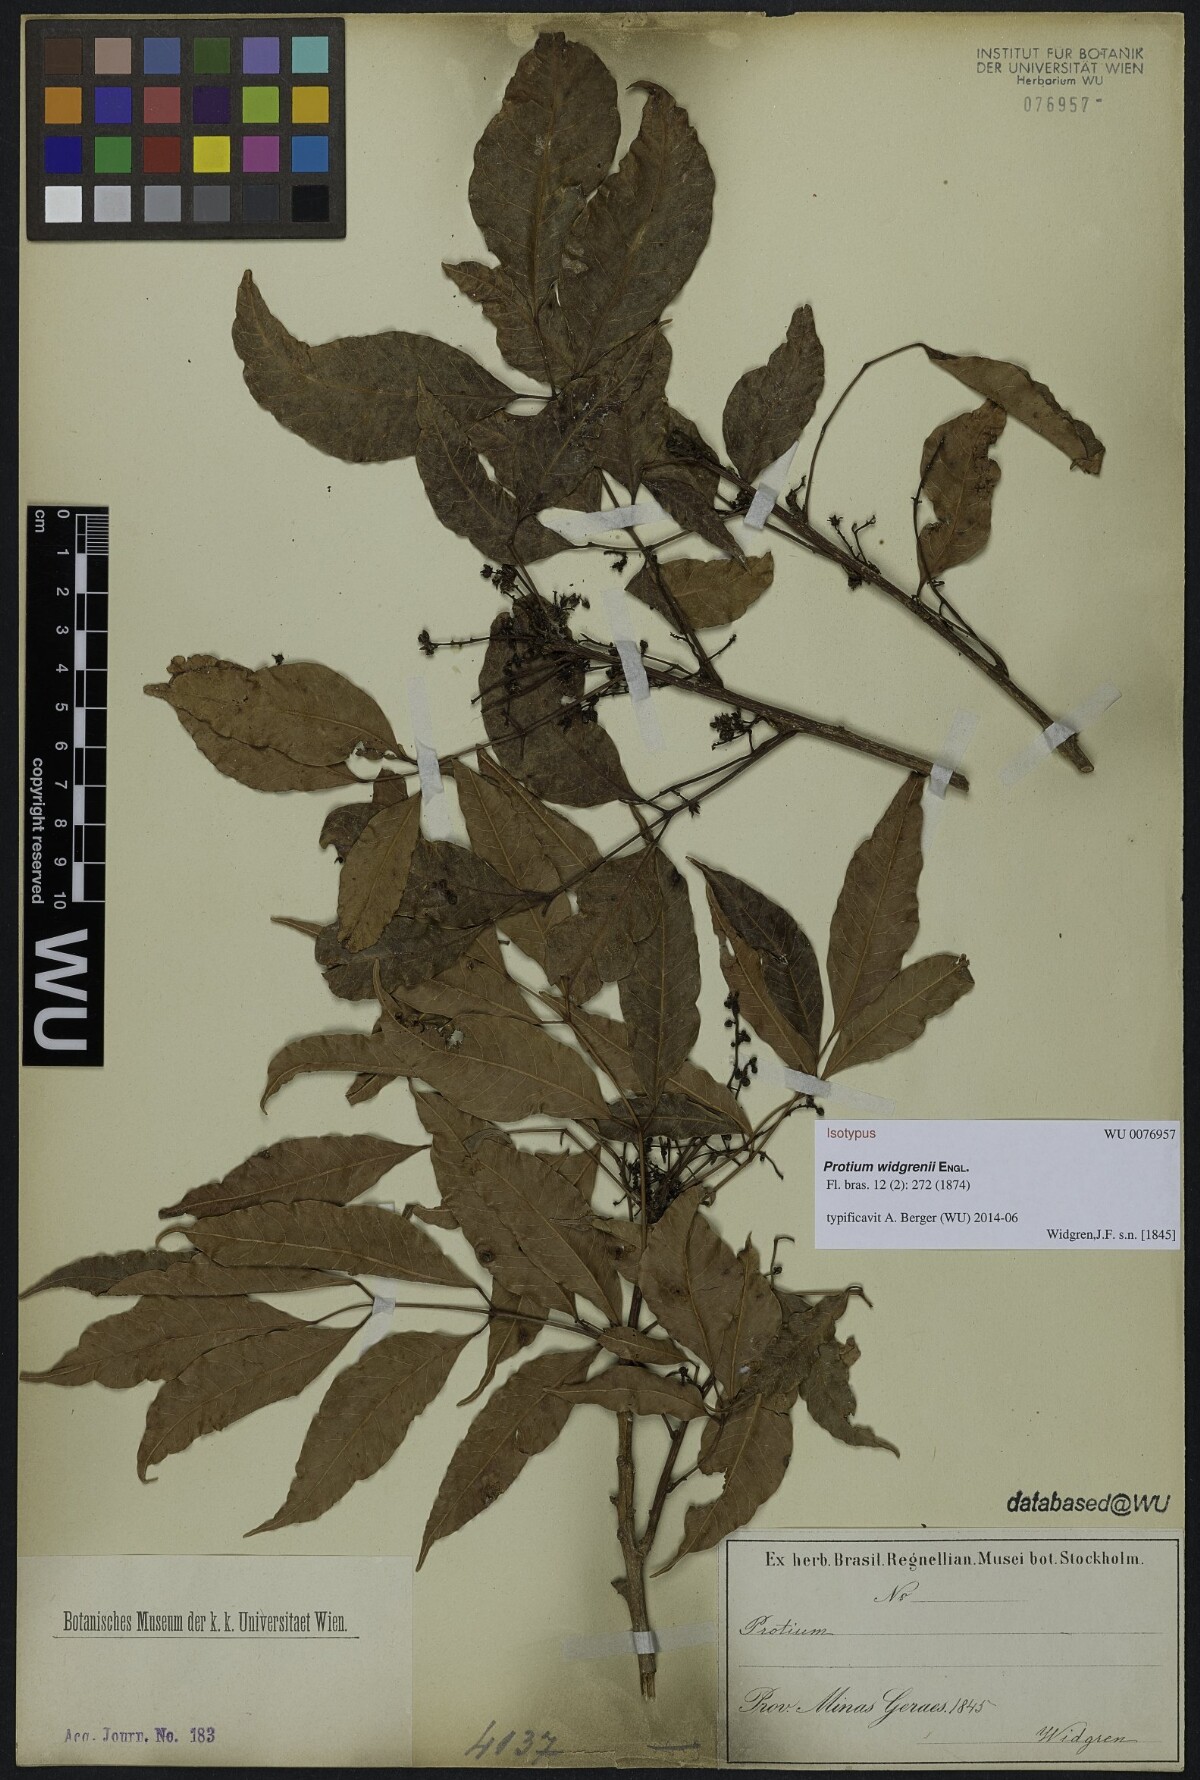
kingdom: Plantae
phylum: Tracheophyta
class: Magnoliopsida
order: Sapindales
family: Burseraceae
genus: Protium
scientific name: Protium widgrenii
